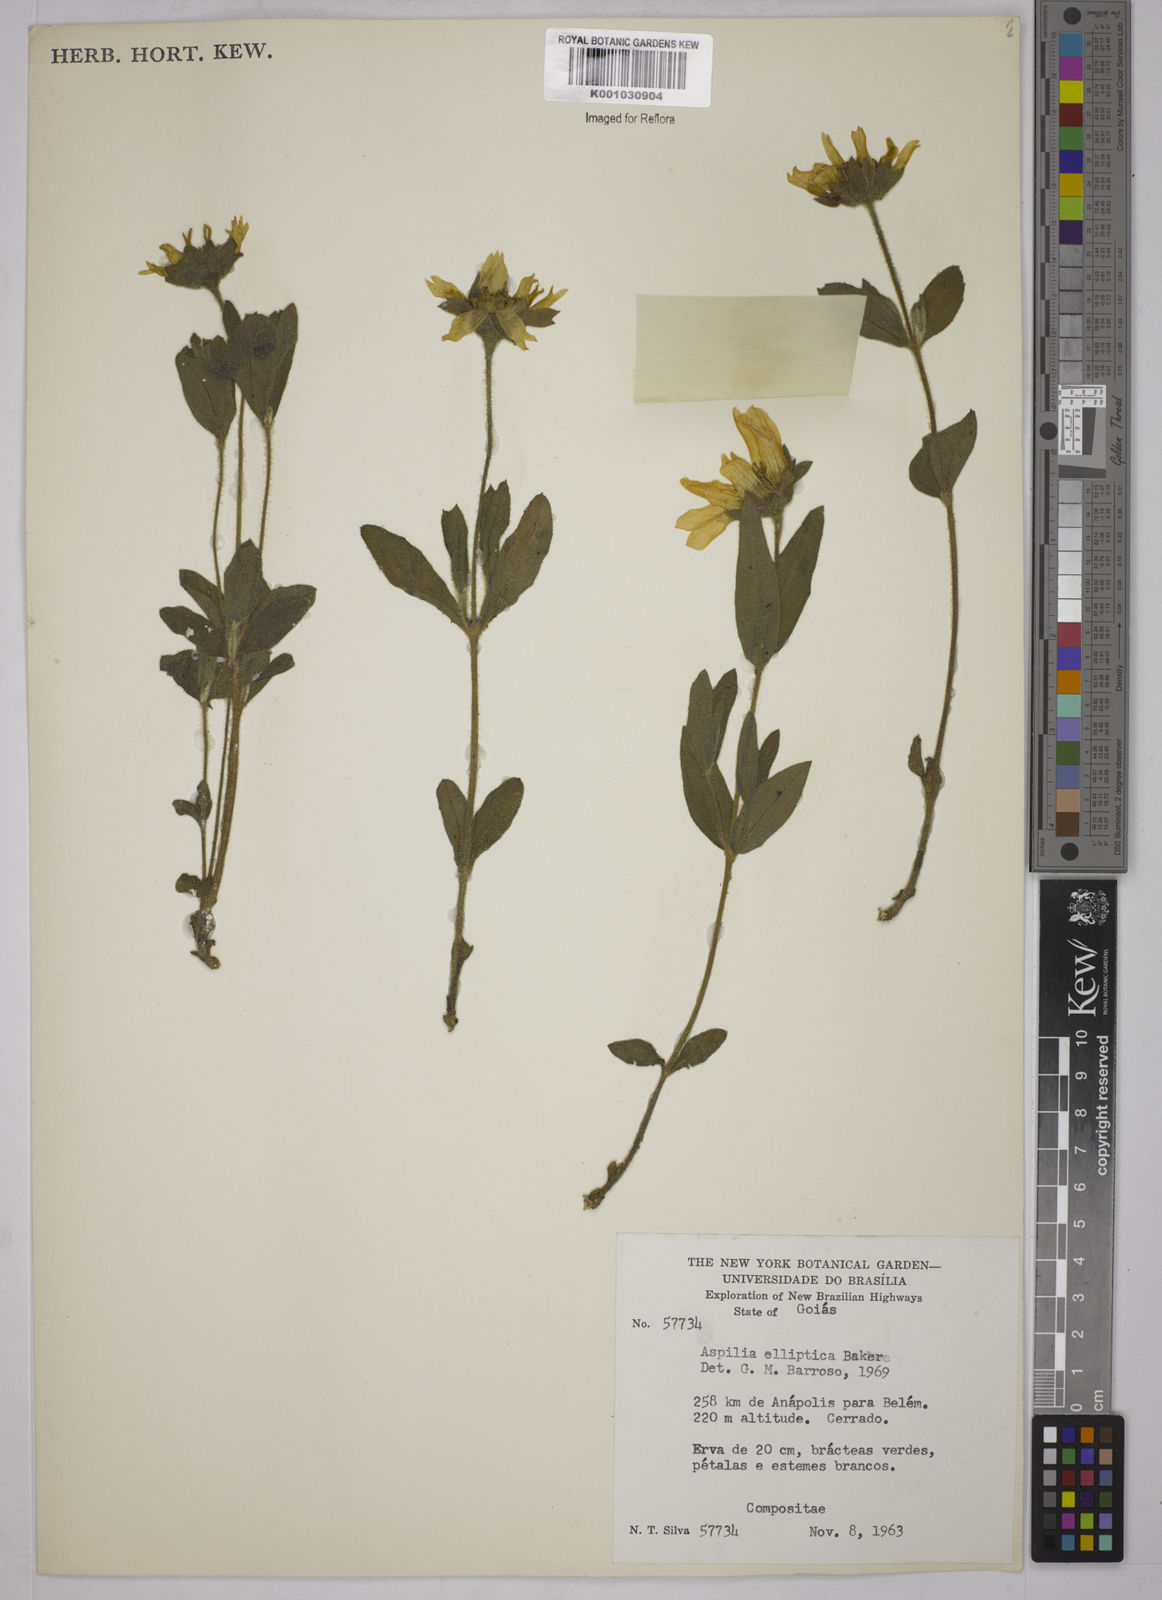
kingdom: Plantae
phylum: Tracheophyta
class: Magnoliopsida
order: Asterales
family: Asteraceae
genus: Wedelia
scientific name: Wedelia elliptica
